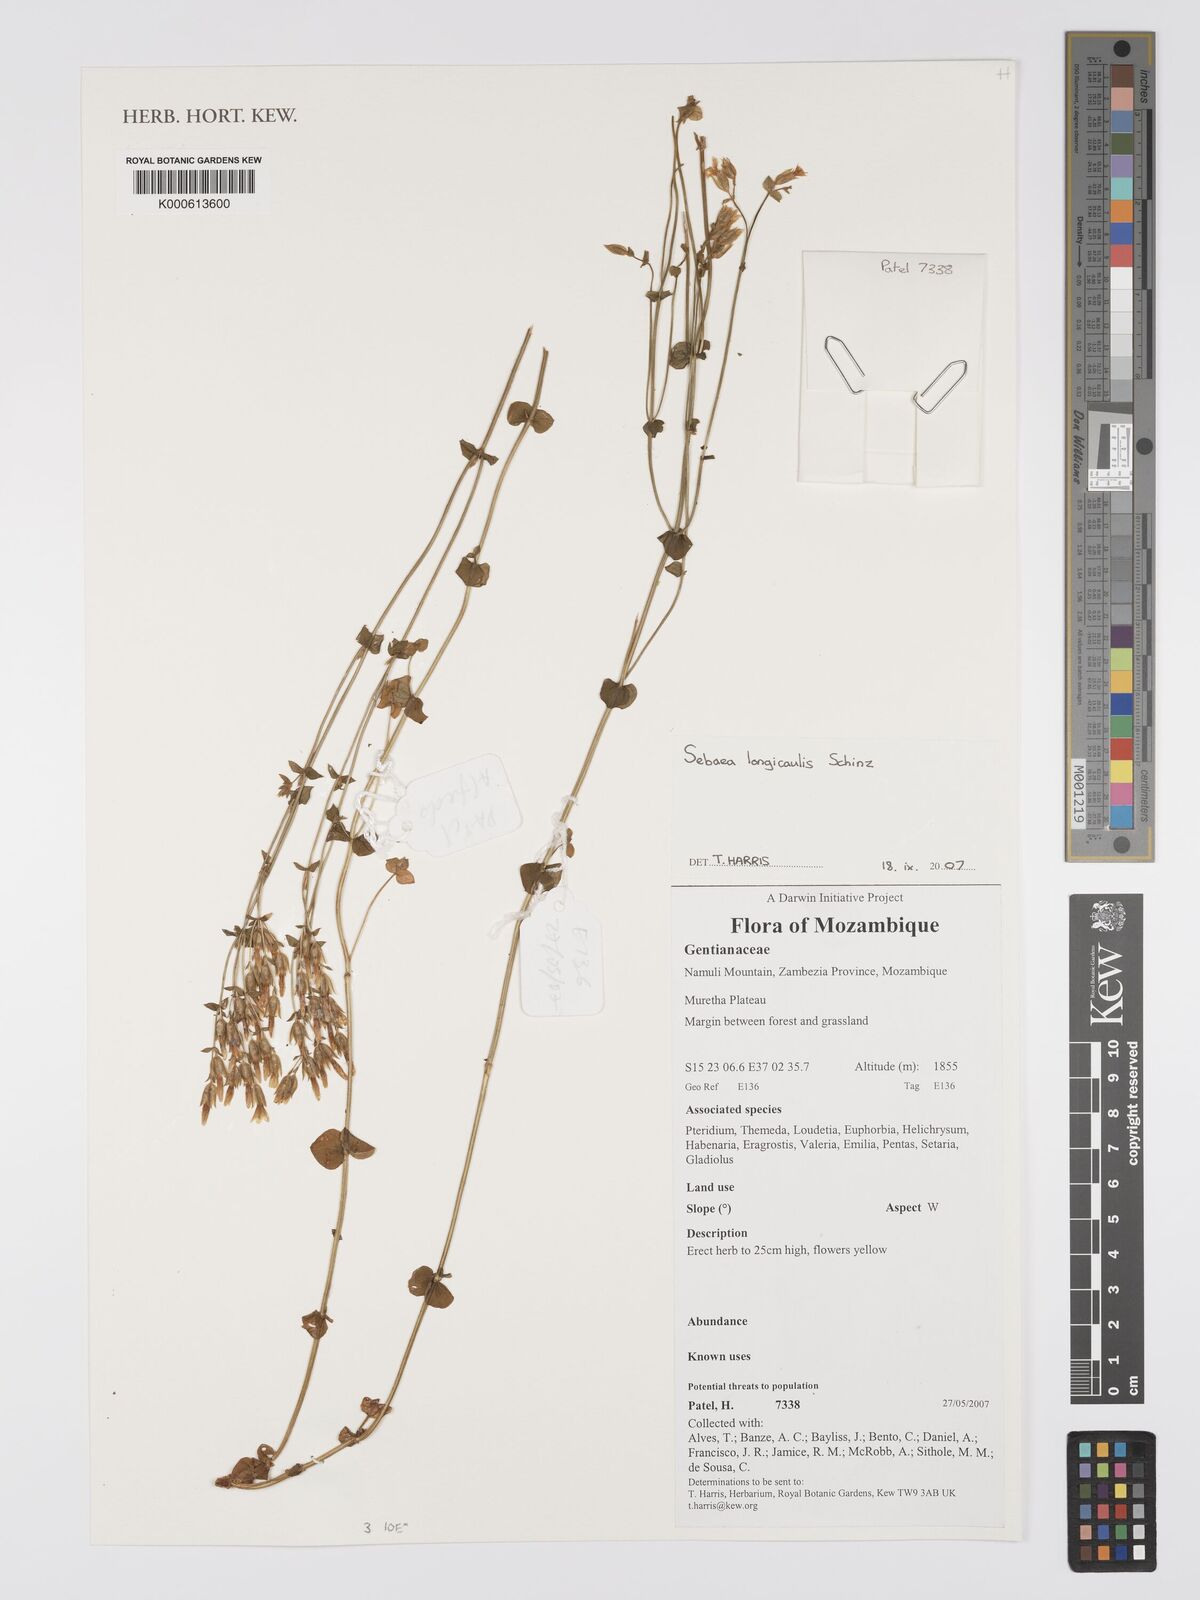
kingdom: Plantae
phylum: Tracheophyta
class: Magnoliopsida
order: Gentianales
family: Gentianaceae
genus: Sebaea
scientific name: Sebaea longicaulis
